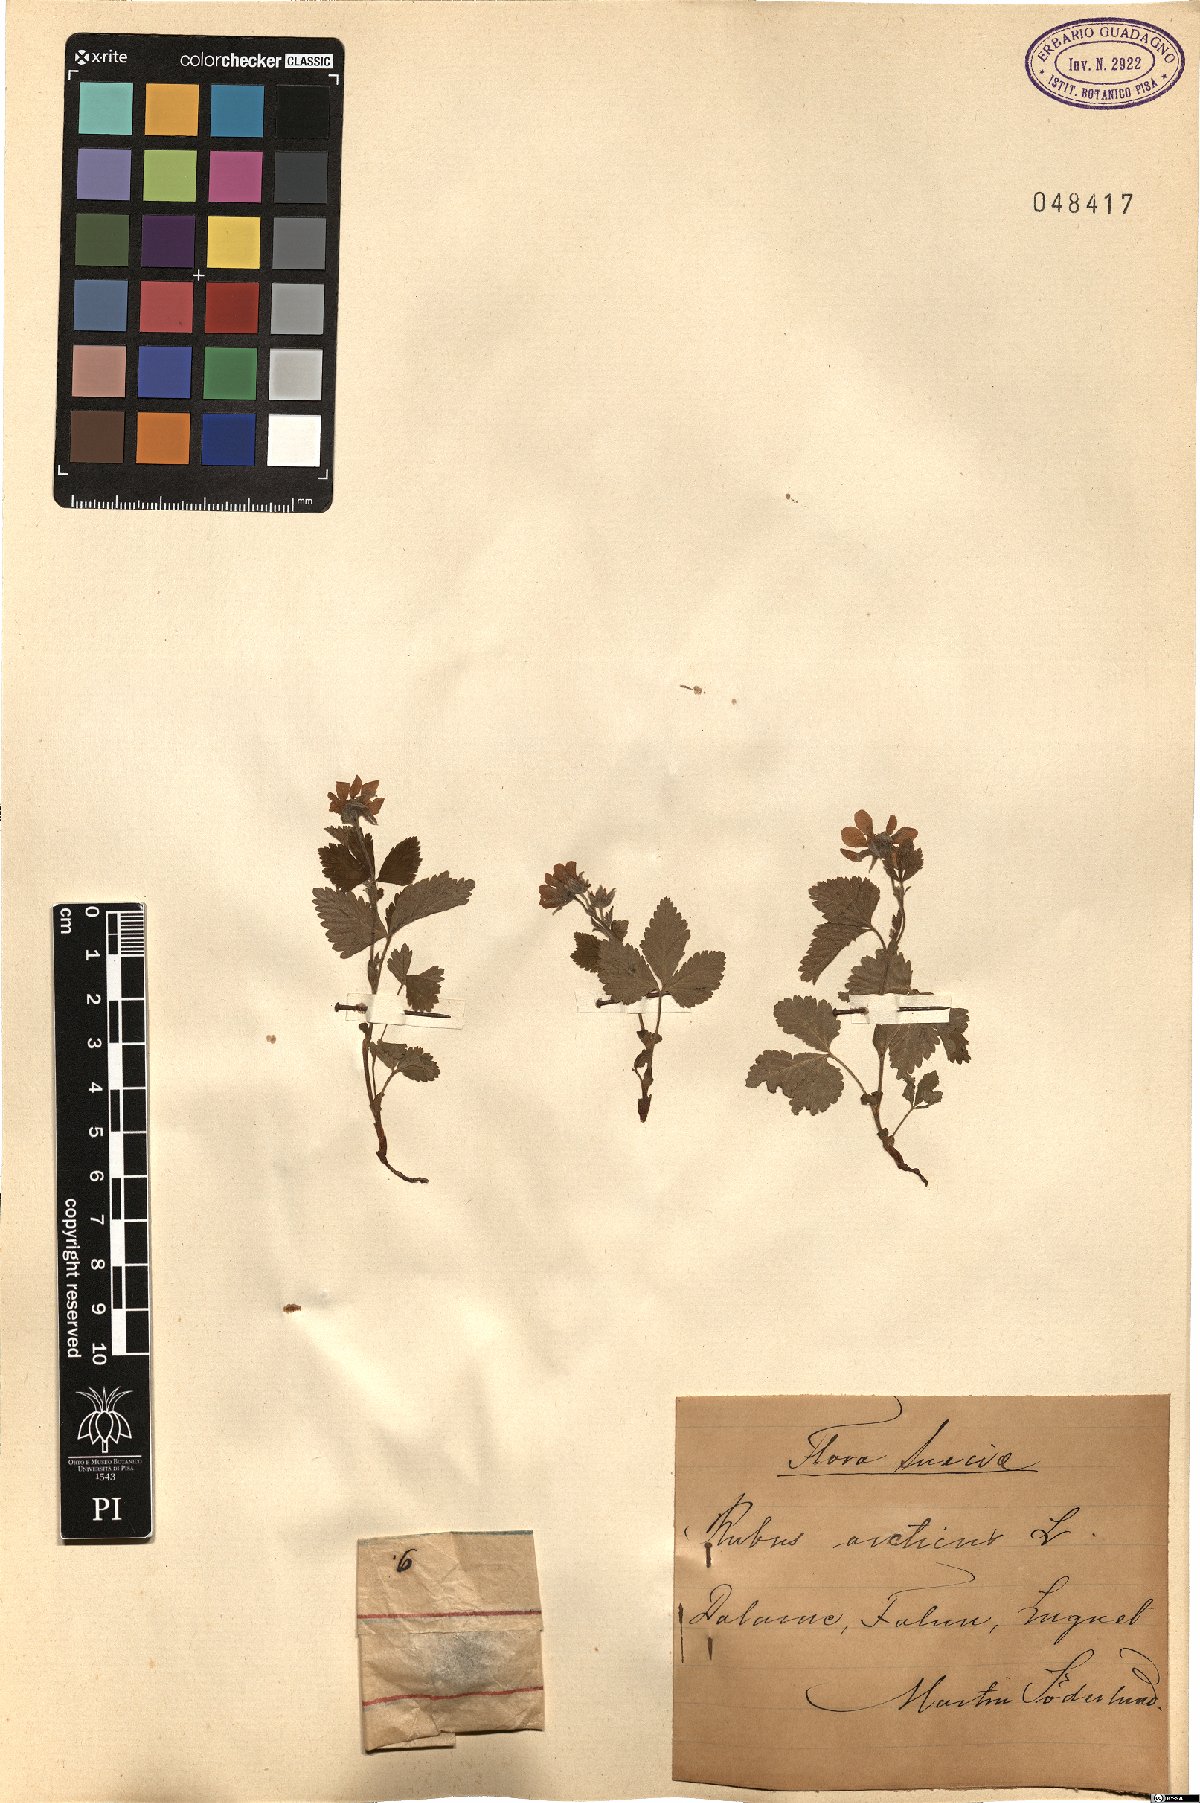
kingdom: Plantae
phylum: Tracheophyta
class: Magnoliopsida
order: Rosales
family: Rosaceae
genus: Rubus
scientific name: Rubus arcticus
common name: Arctic bramble
